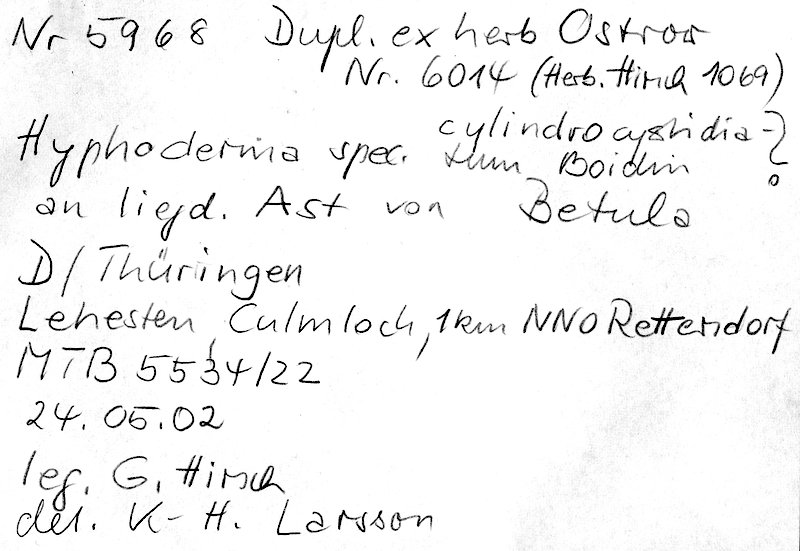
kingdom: Fungi
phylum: Basidiomycota
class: Agaricomycetes
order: Hymenochaetales
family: Rickenellaceae
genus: Peniophorella
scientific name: Peniophorella cylindrocystidiata
